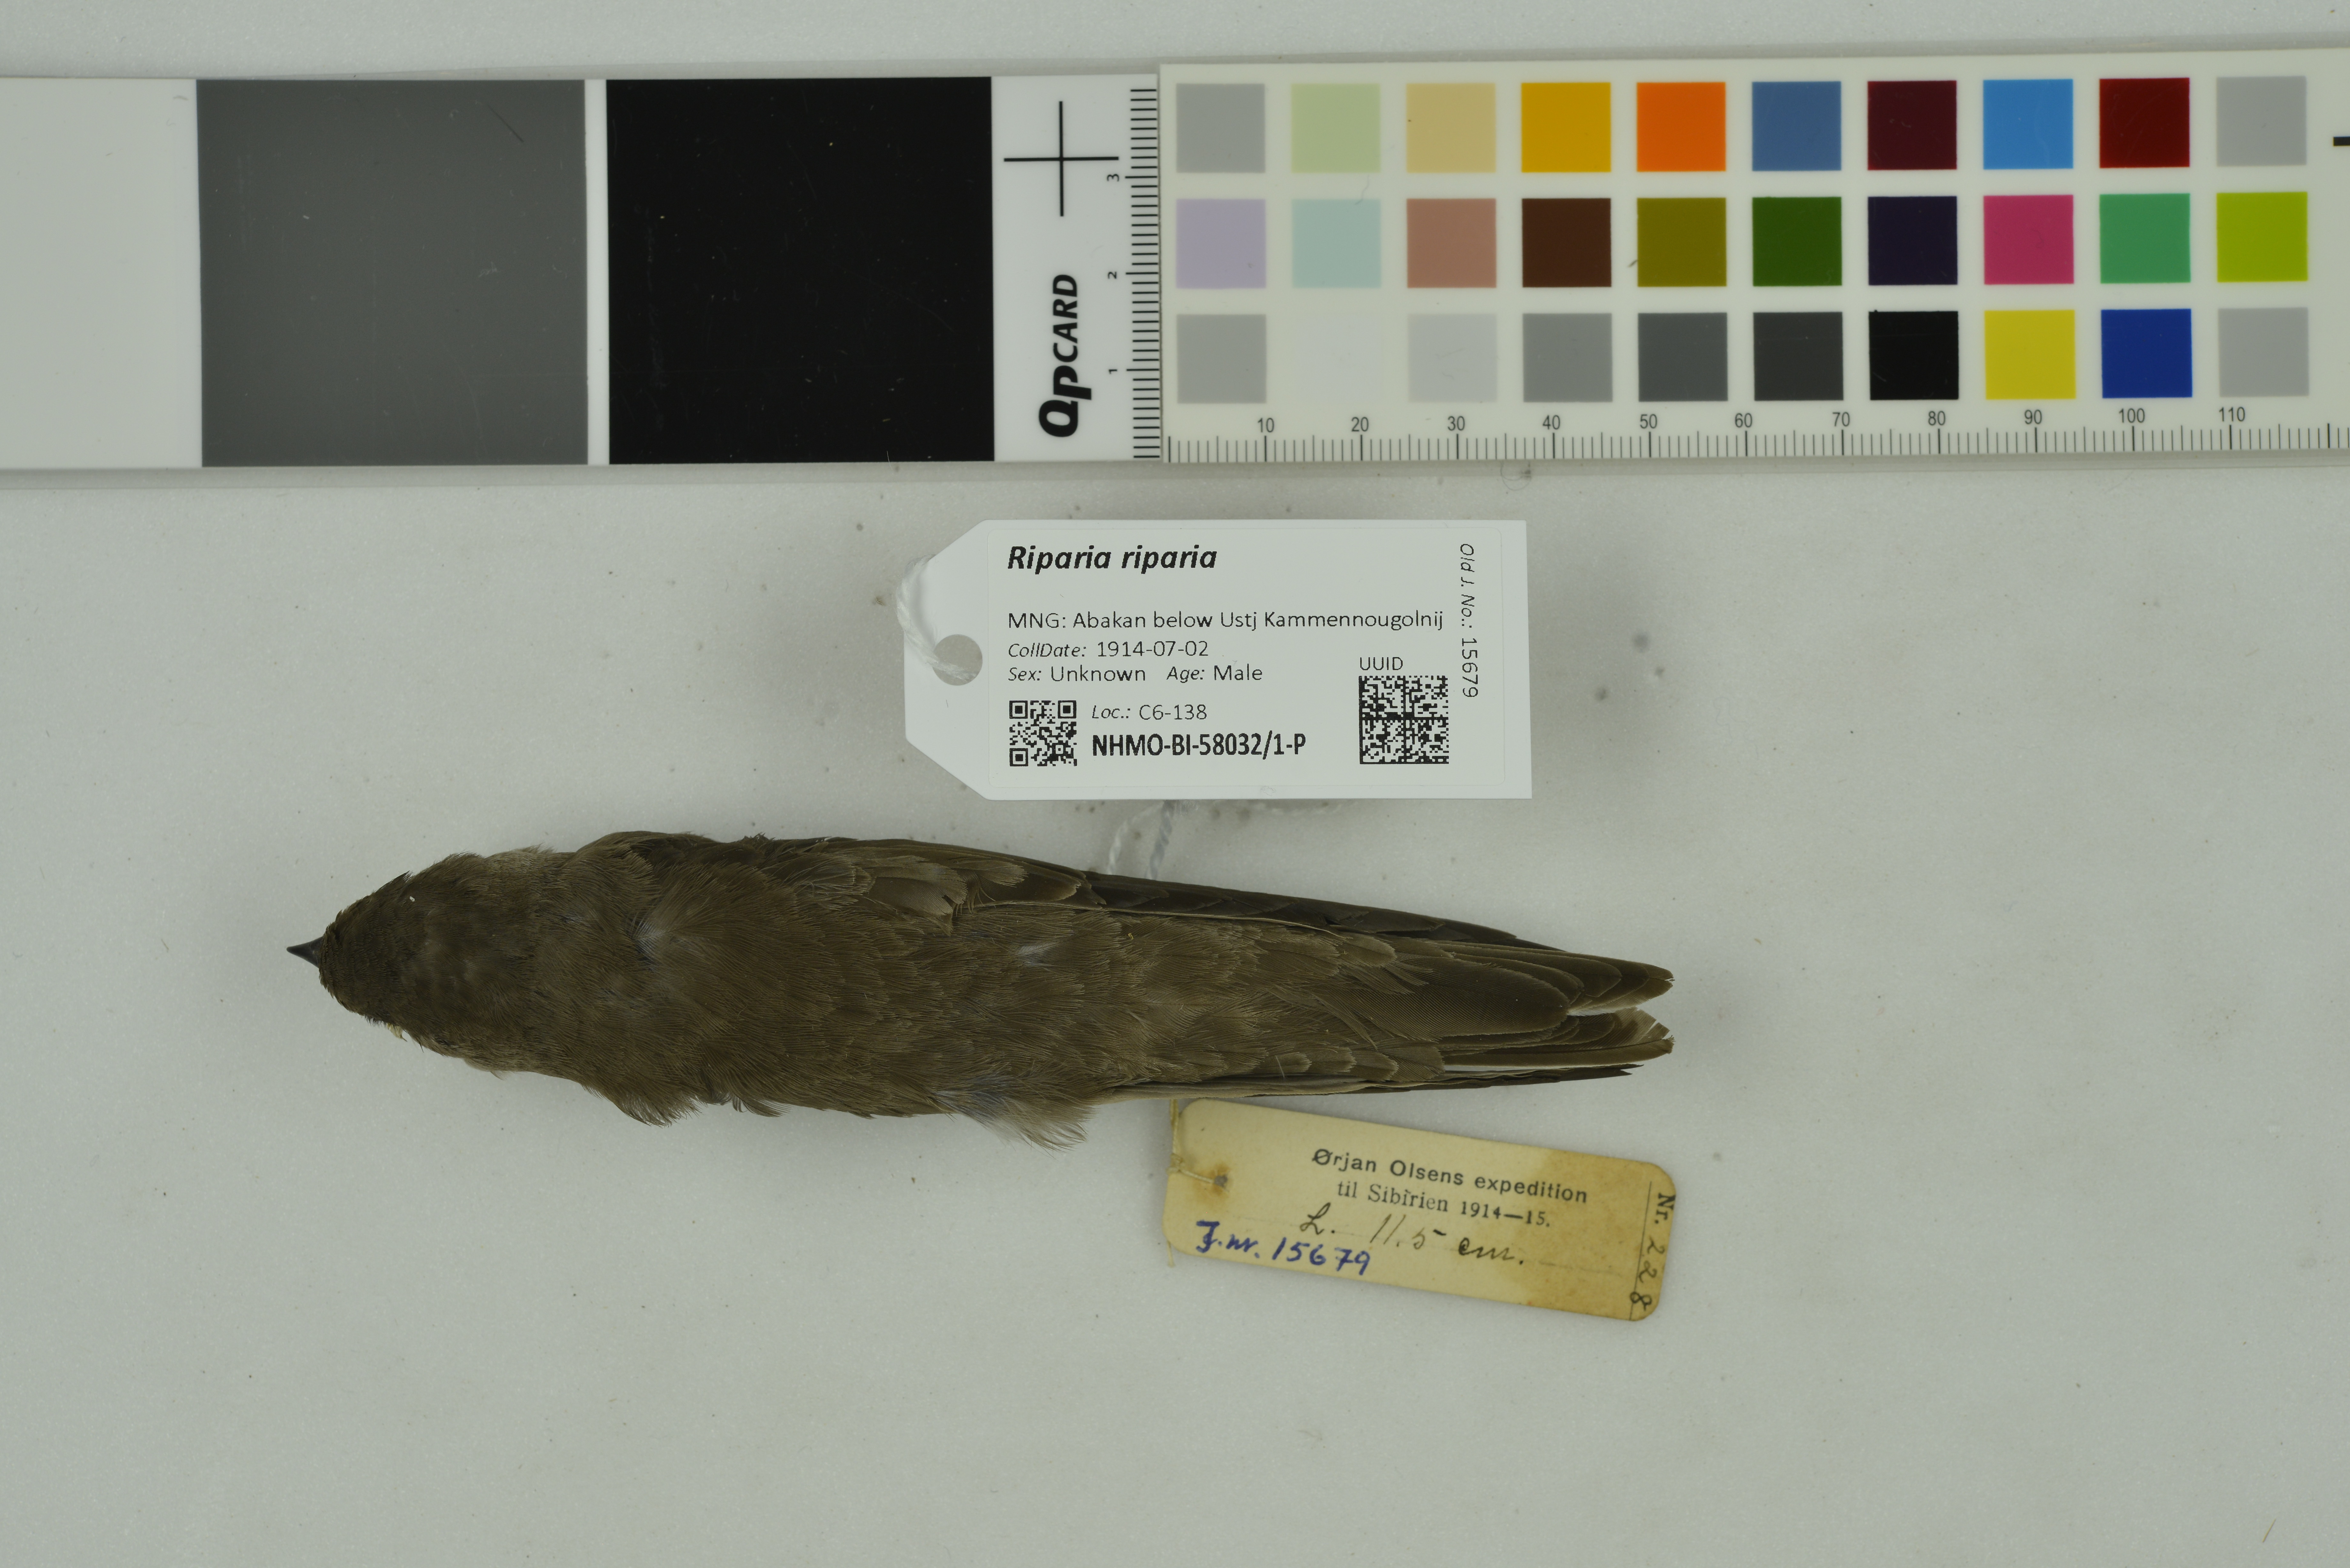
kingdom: Animalia
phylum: Chordata
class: Aves
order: Passeriformes
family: Hirundinidae
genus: Riparia
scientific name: Riparia riparia
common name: Sand martin
